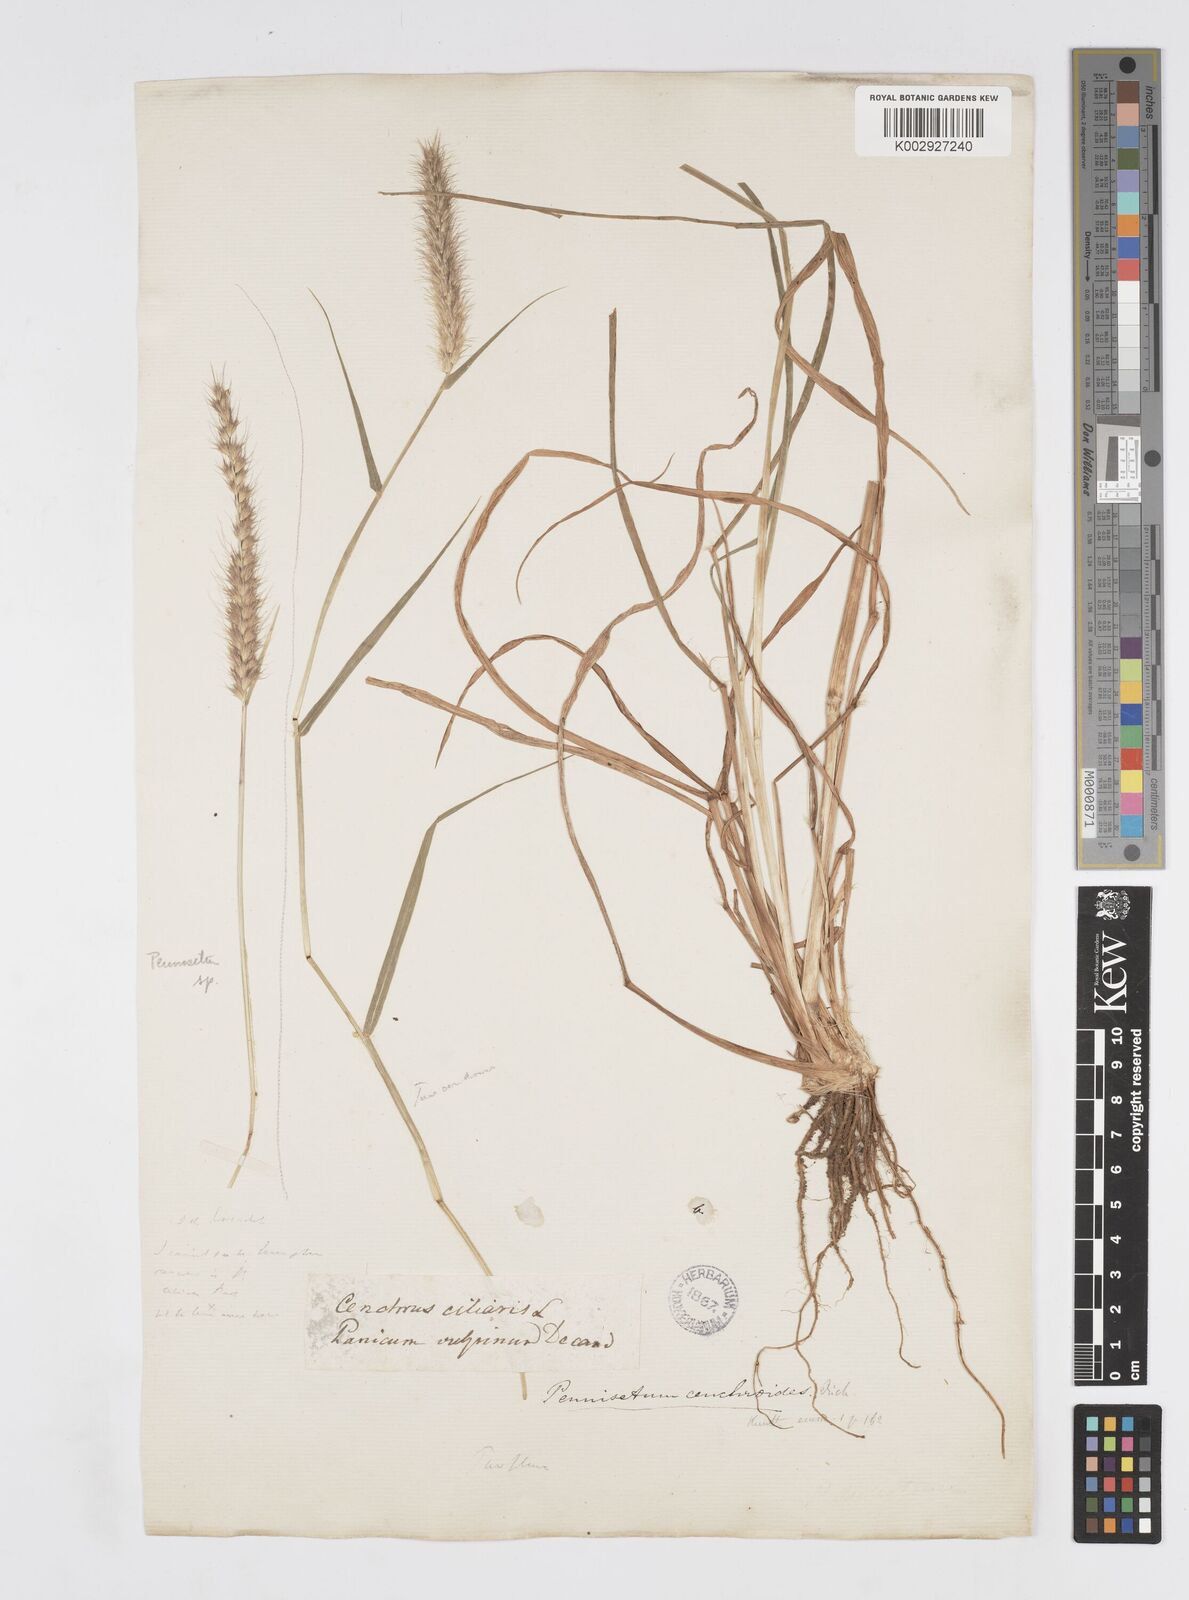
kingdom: Plantae
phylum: Tracheophyta
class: Liliopsida
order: Poales
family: Poaceae
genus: Cenchrus
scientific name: Cenchrus ciliaris
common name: Buffelgrass
